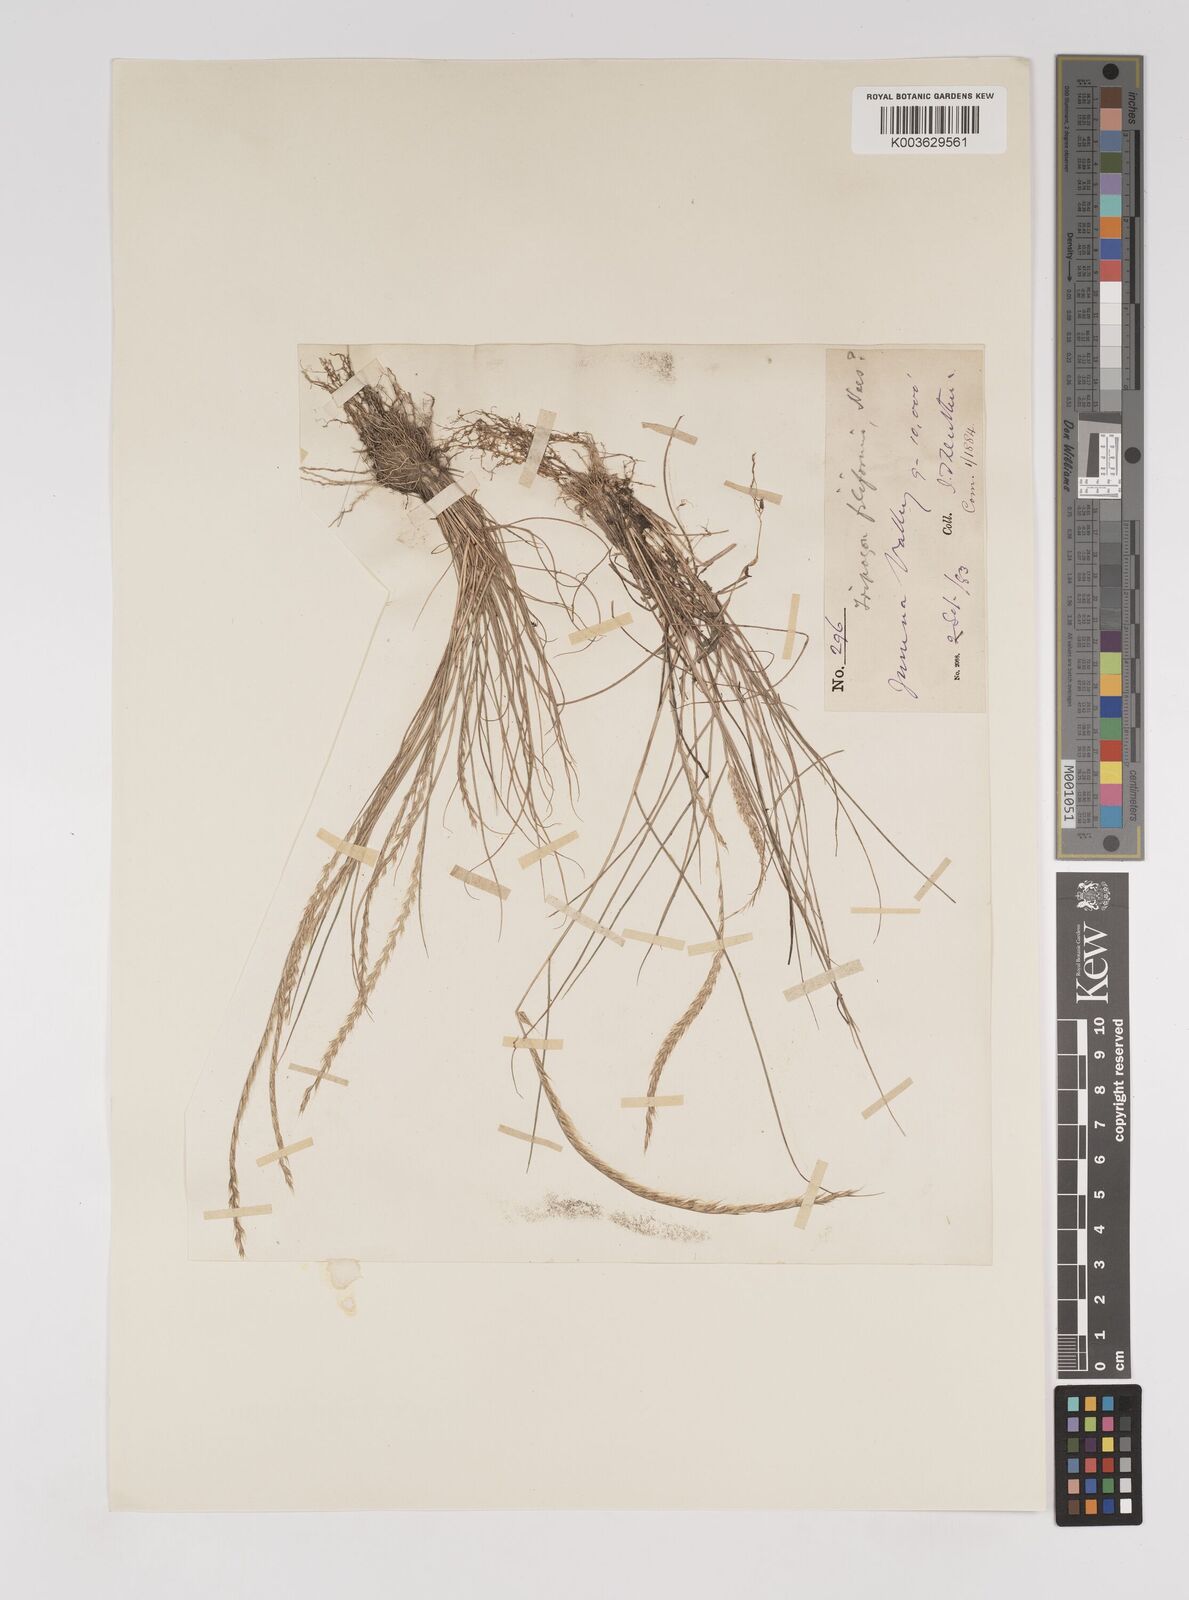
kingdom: Plantae
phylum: Tracheophyta
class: Liliopsida
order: Poales
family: Poaceae
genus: Tripogon
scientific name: Tripogon filiformis
